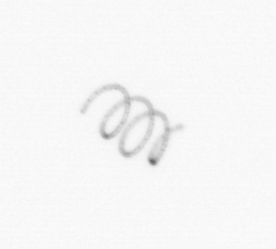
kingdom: Chromista
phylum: Ochrophyta
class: Bacillariophyceae
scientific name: Bacillariophyceae
